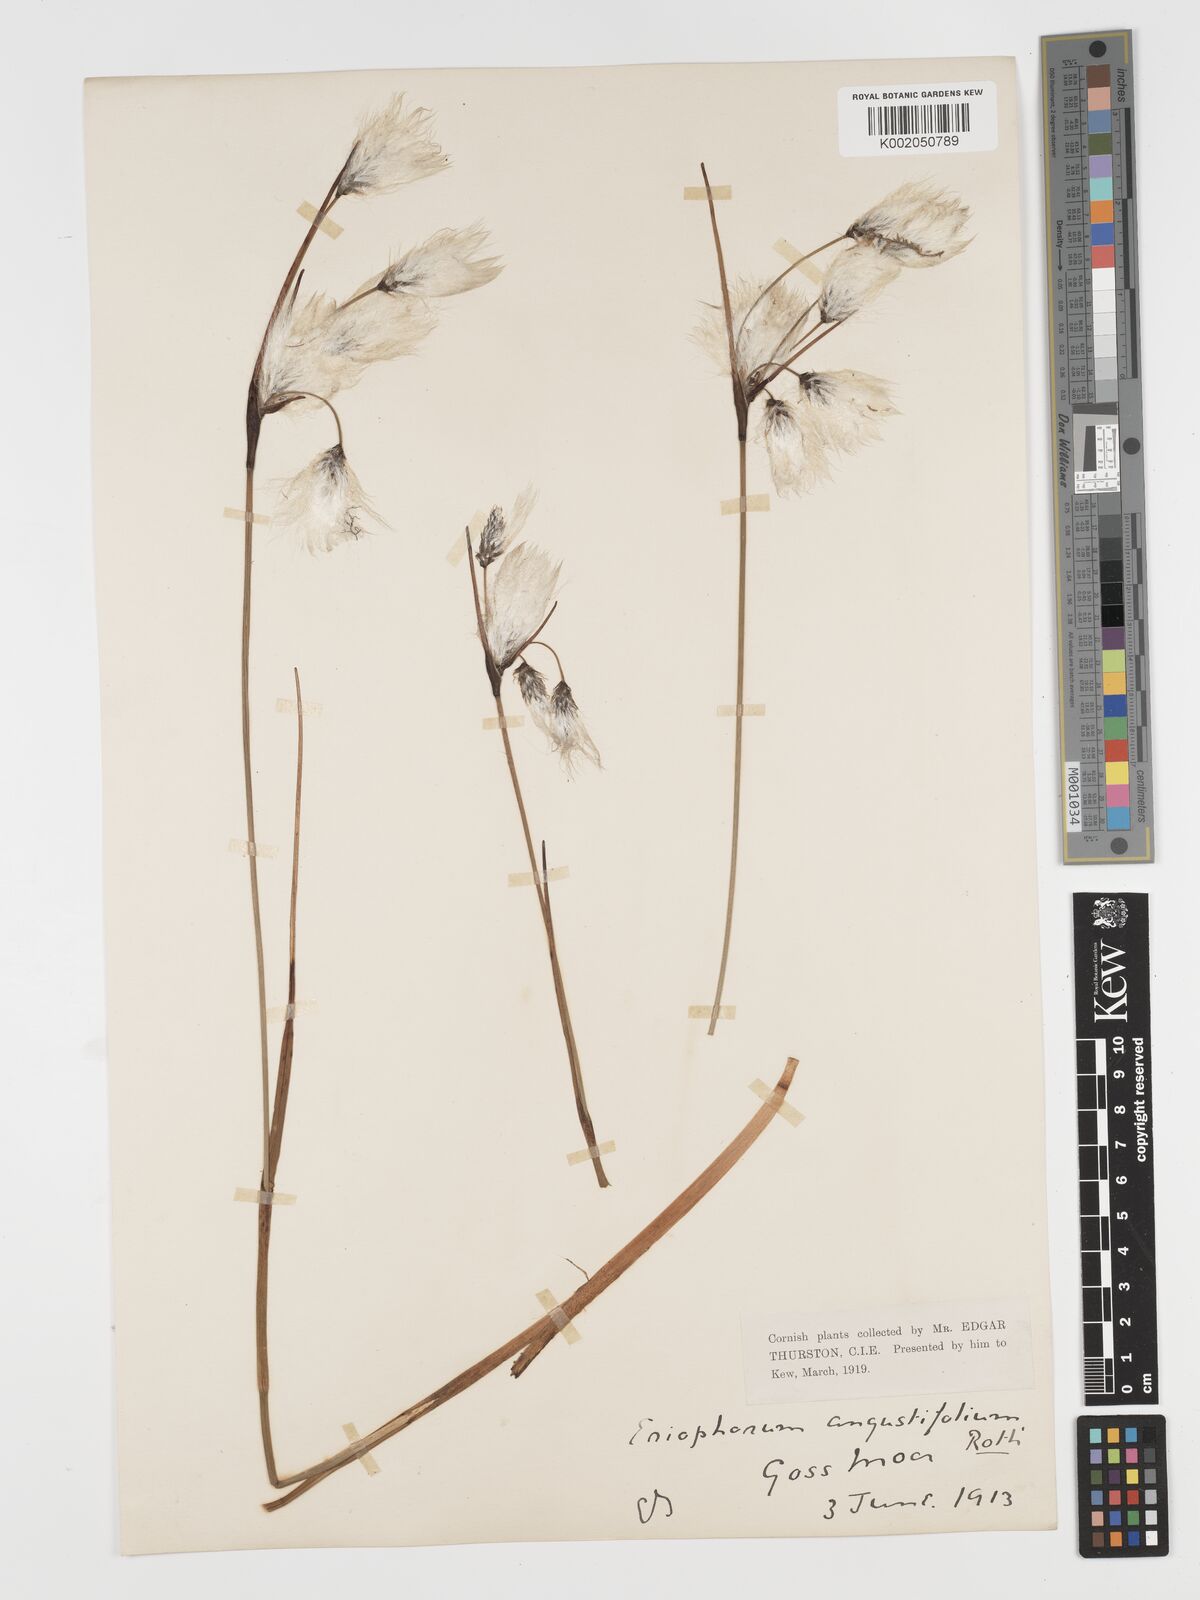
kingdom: Plantae
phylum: Tracheophyta
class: Liliopsida
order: Poales
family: Cyperaceae
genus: Eriophorum
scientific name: Eriophorum angustifolium
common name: Common cottongrass
